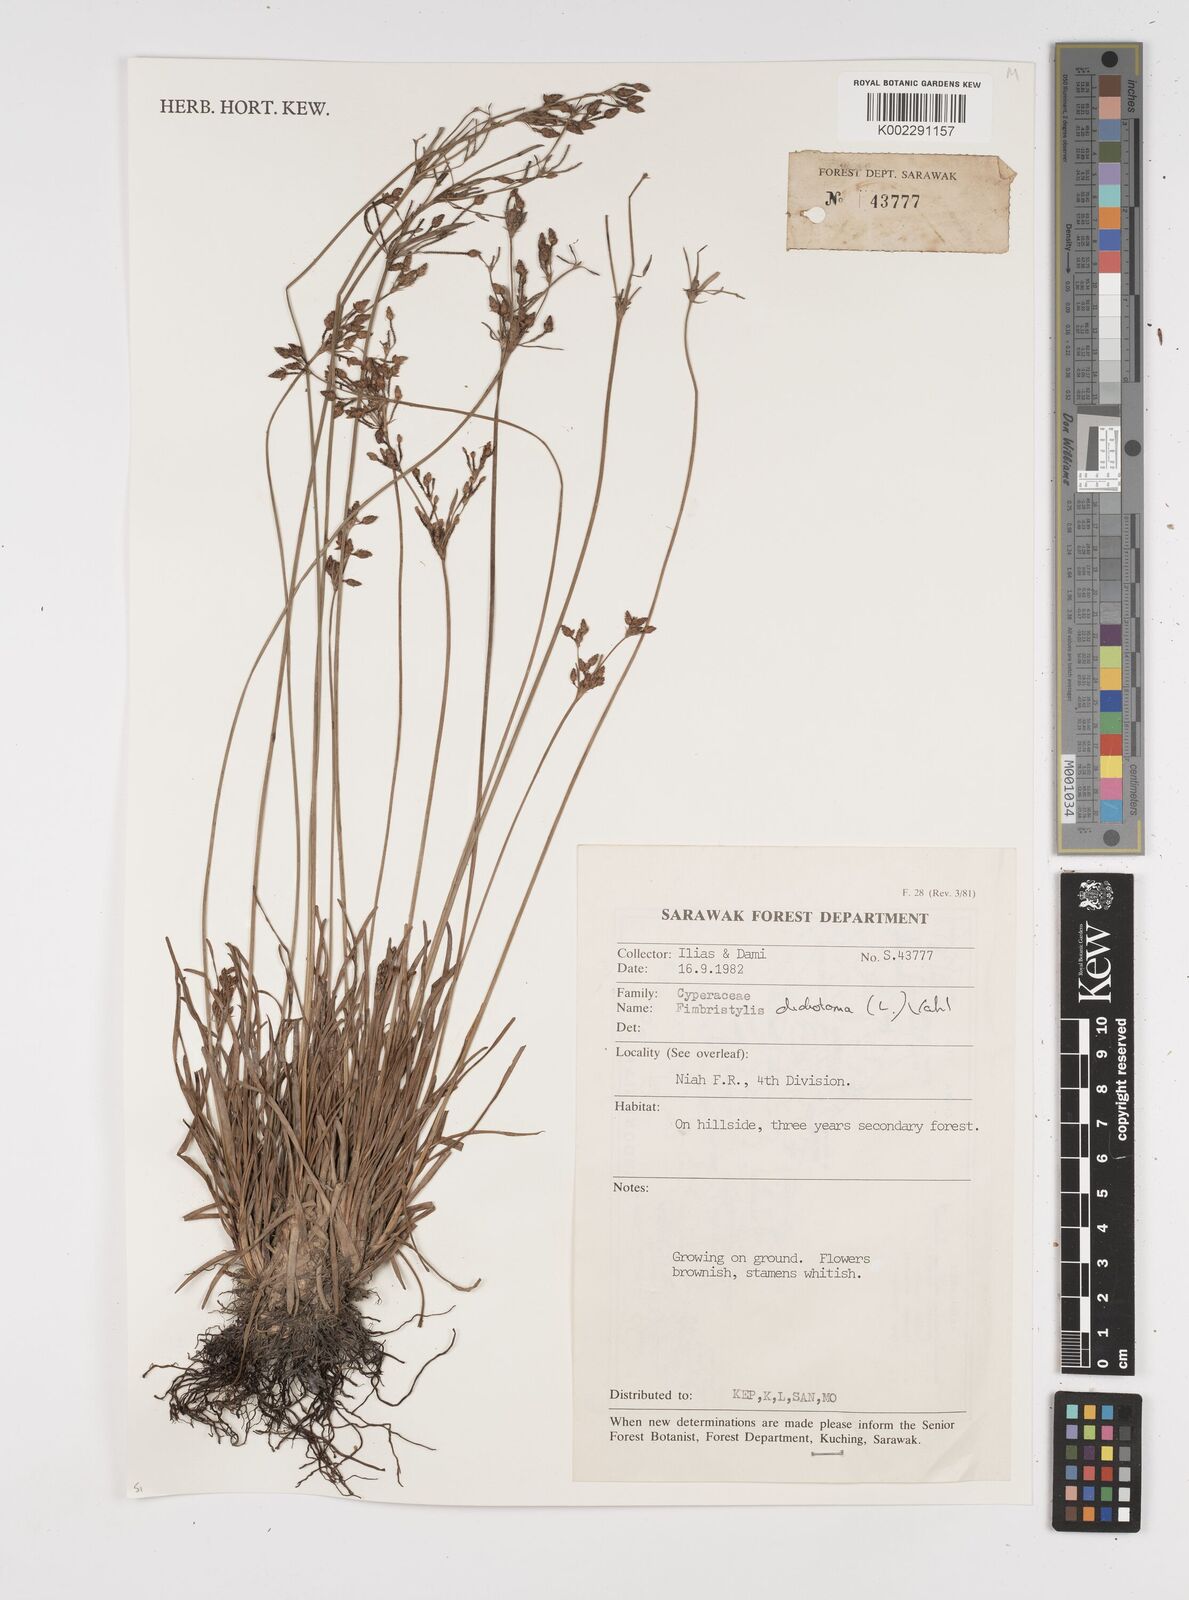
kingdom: Plantae
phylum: Tracheophyta
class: Liliopsida
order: Poales
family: Cyperaceae
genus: Fimbristylis
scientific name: Fimbristylis dichotoma
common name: Forked fimbry
